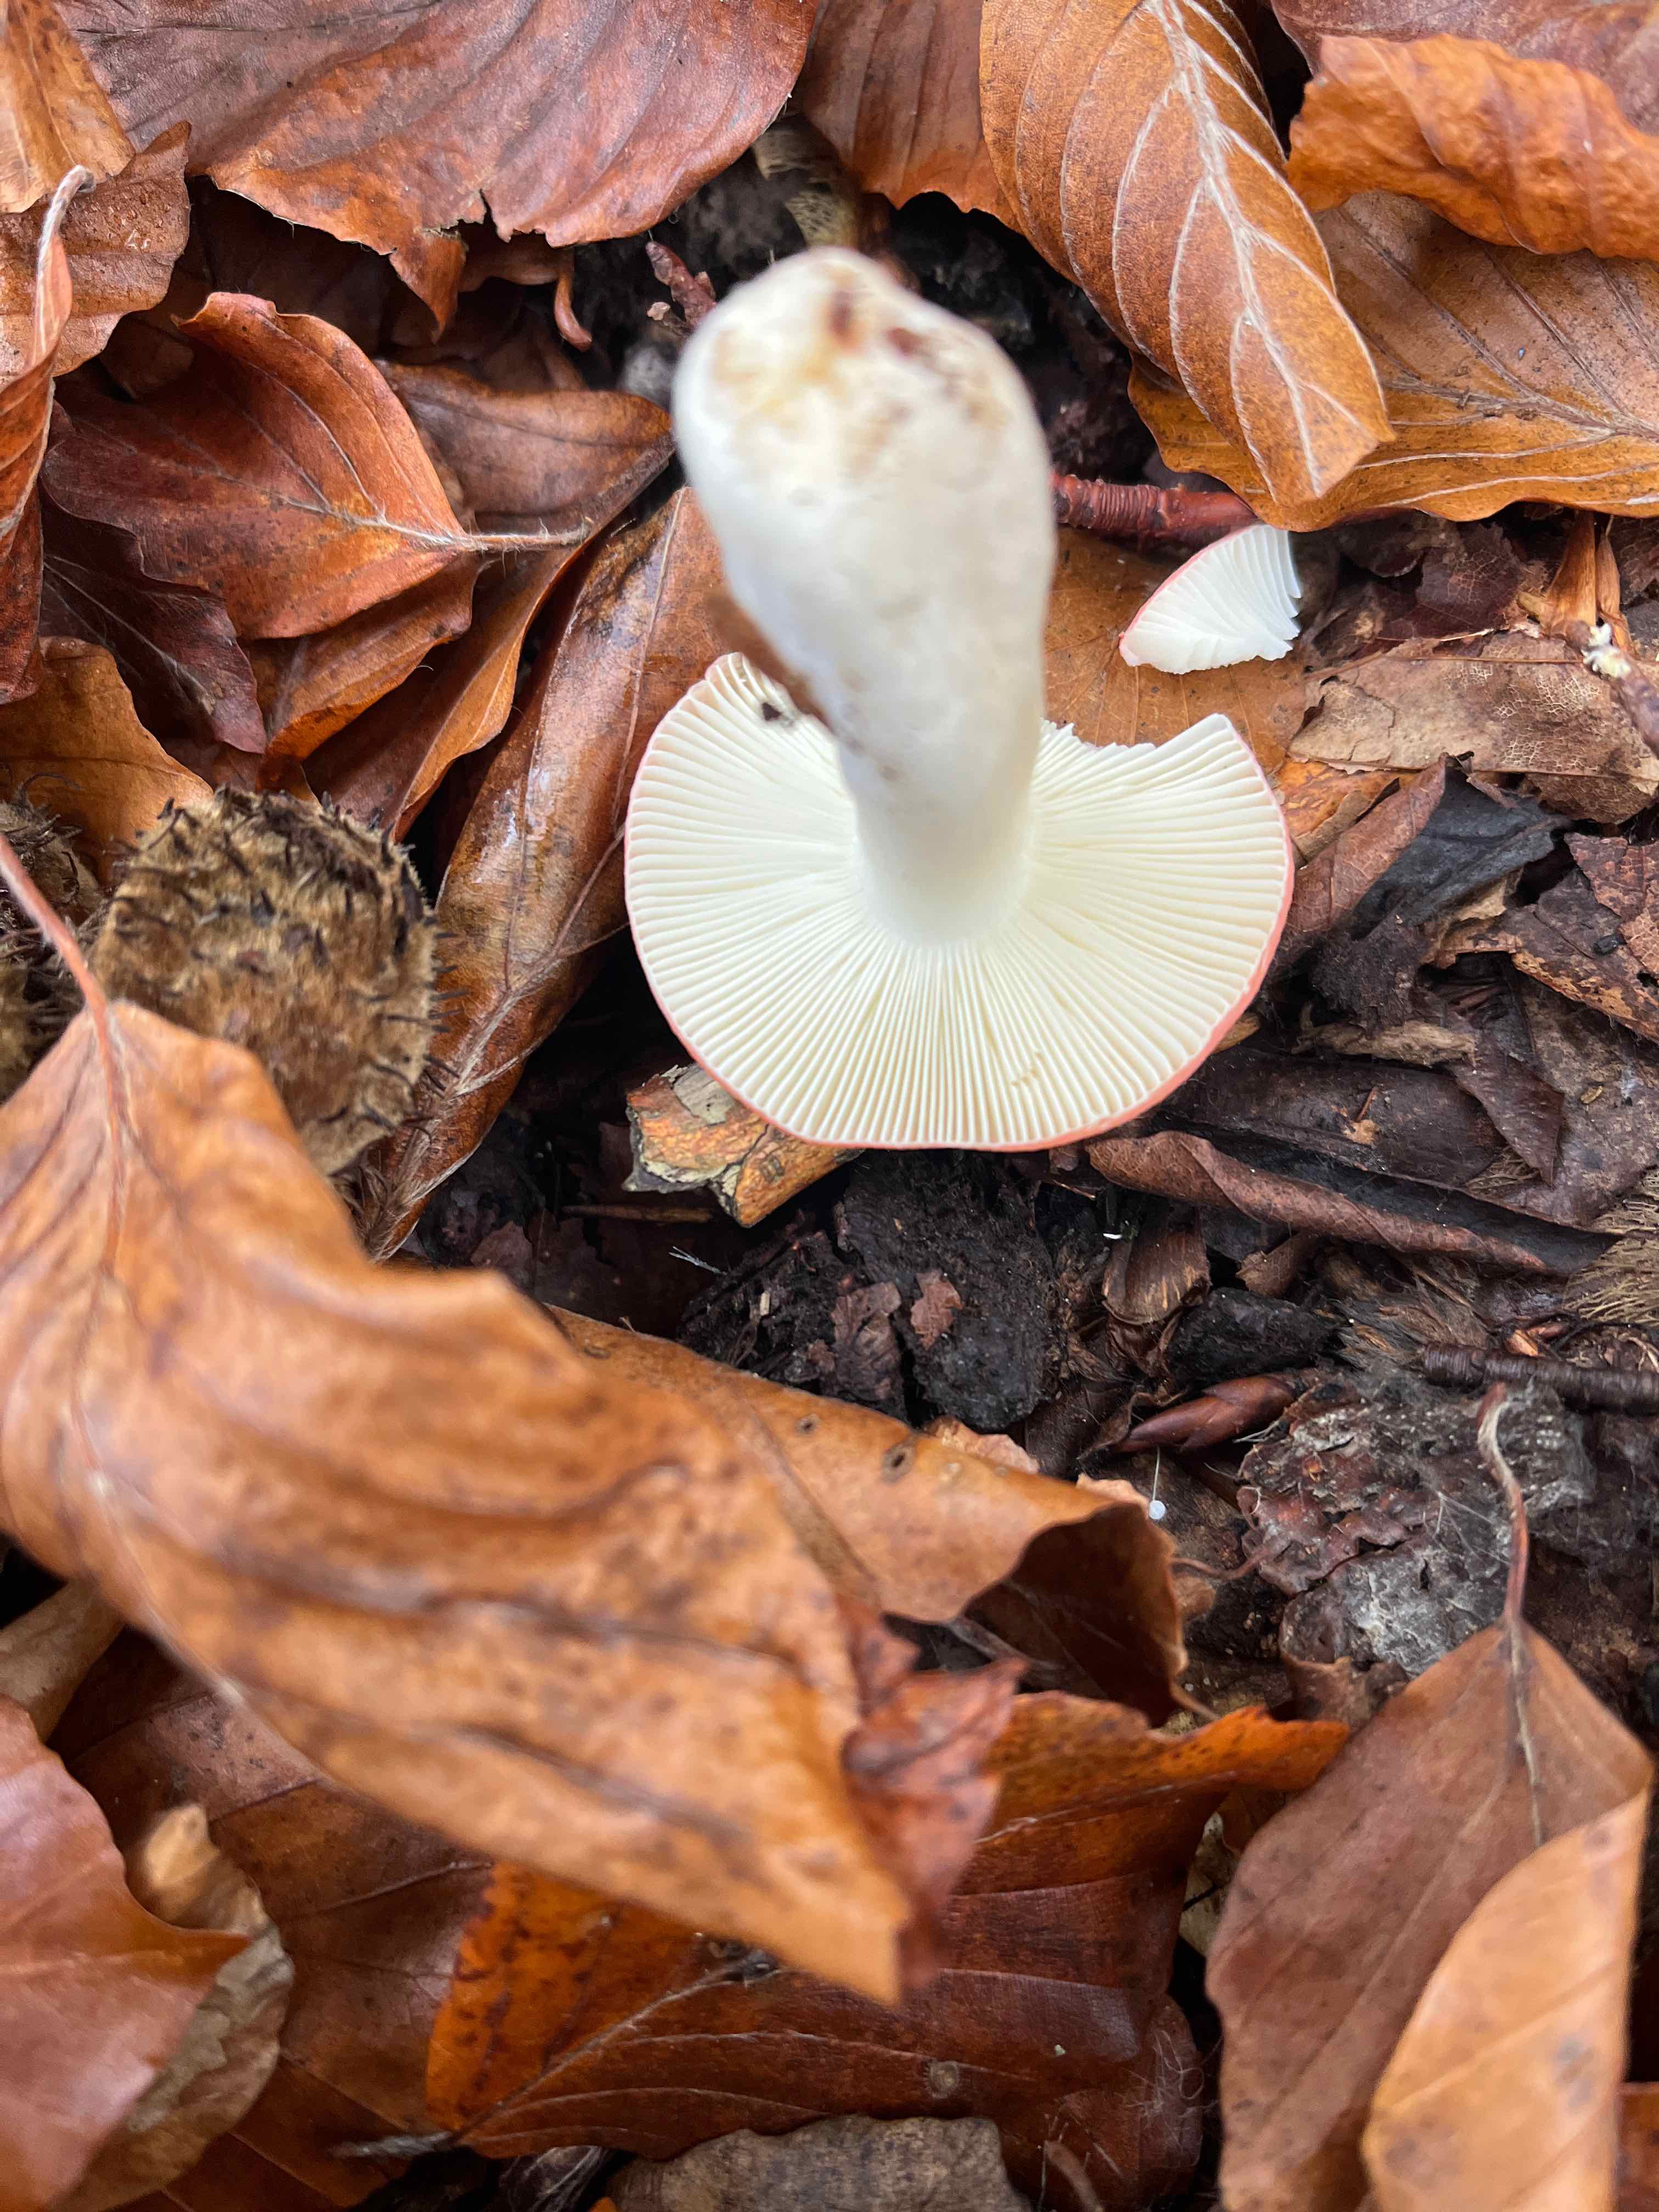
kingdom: Fungi
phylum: Basidiomycota
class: Agaricomycetes
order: Russulales
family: Russulaceae
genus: Russula
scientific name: Russula nobilis
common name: lille gift-skørhat
